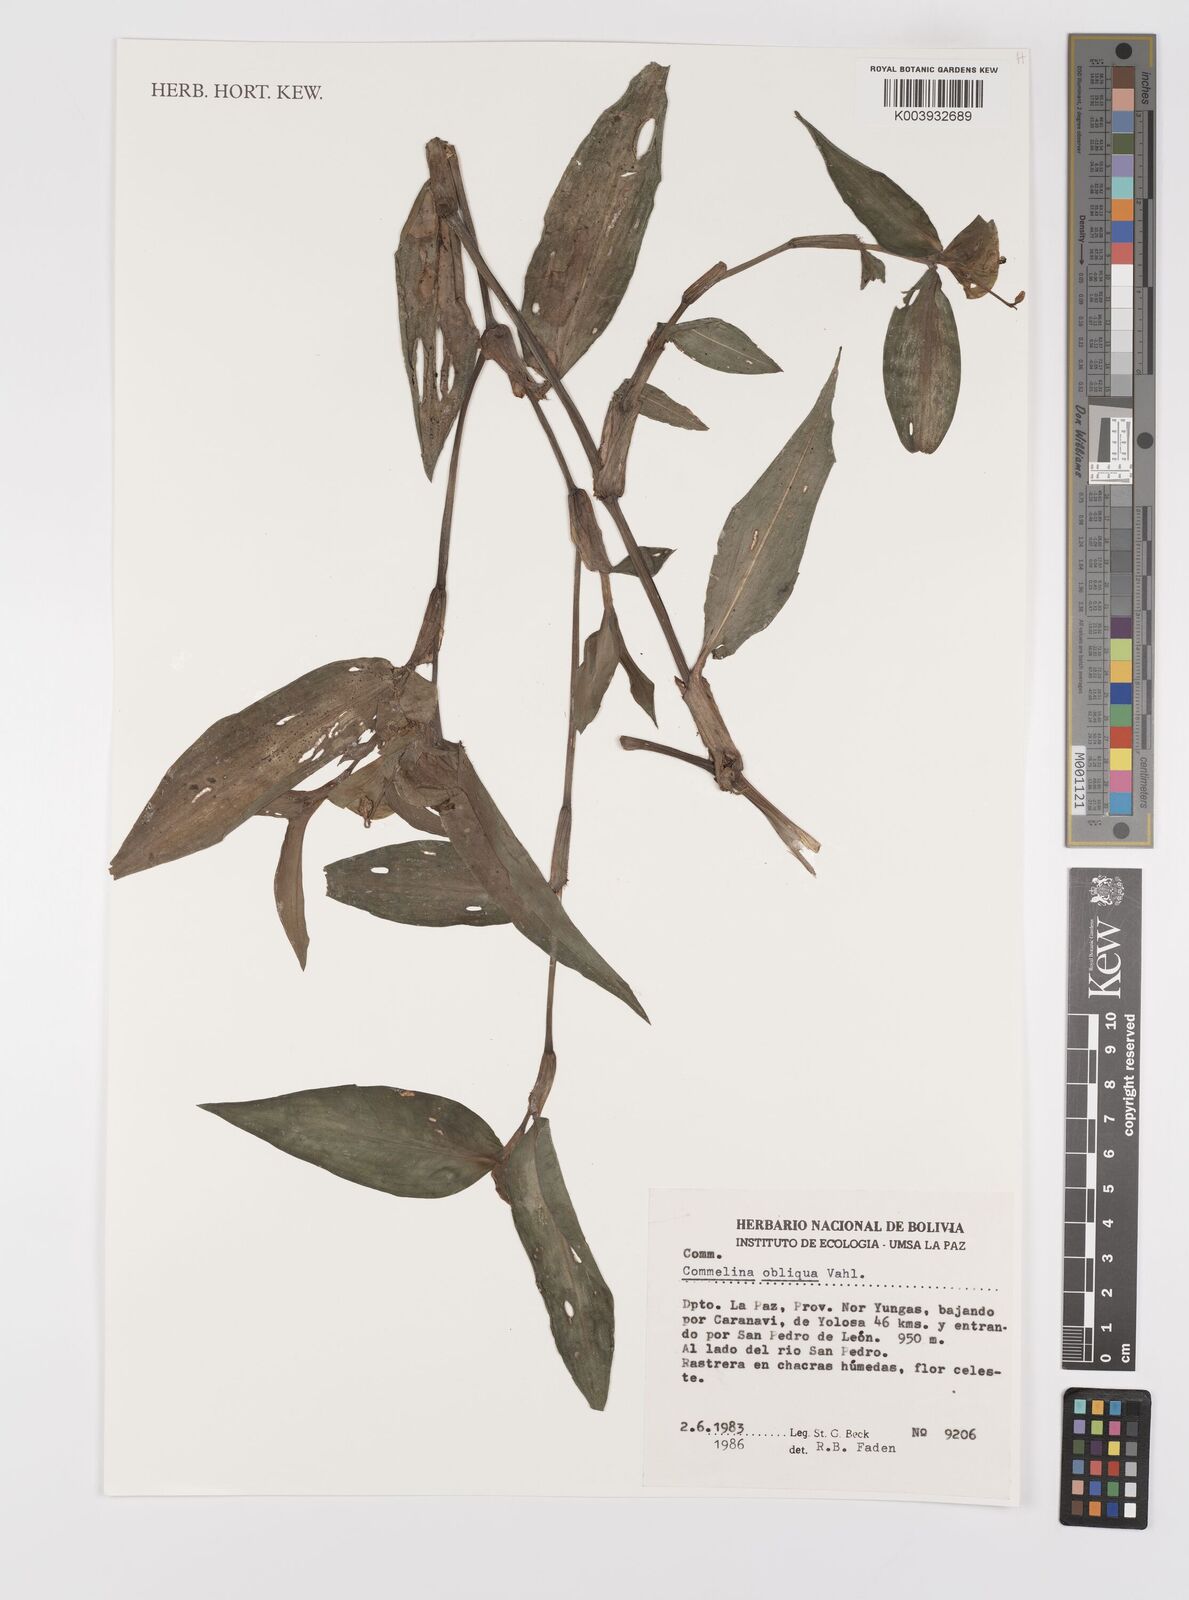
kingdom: Plantae
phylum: Tracheophyta
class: Liliopsida
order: Commelinales
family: Commelinaceae
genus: Commelina
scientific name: Commelina obliqua
